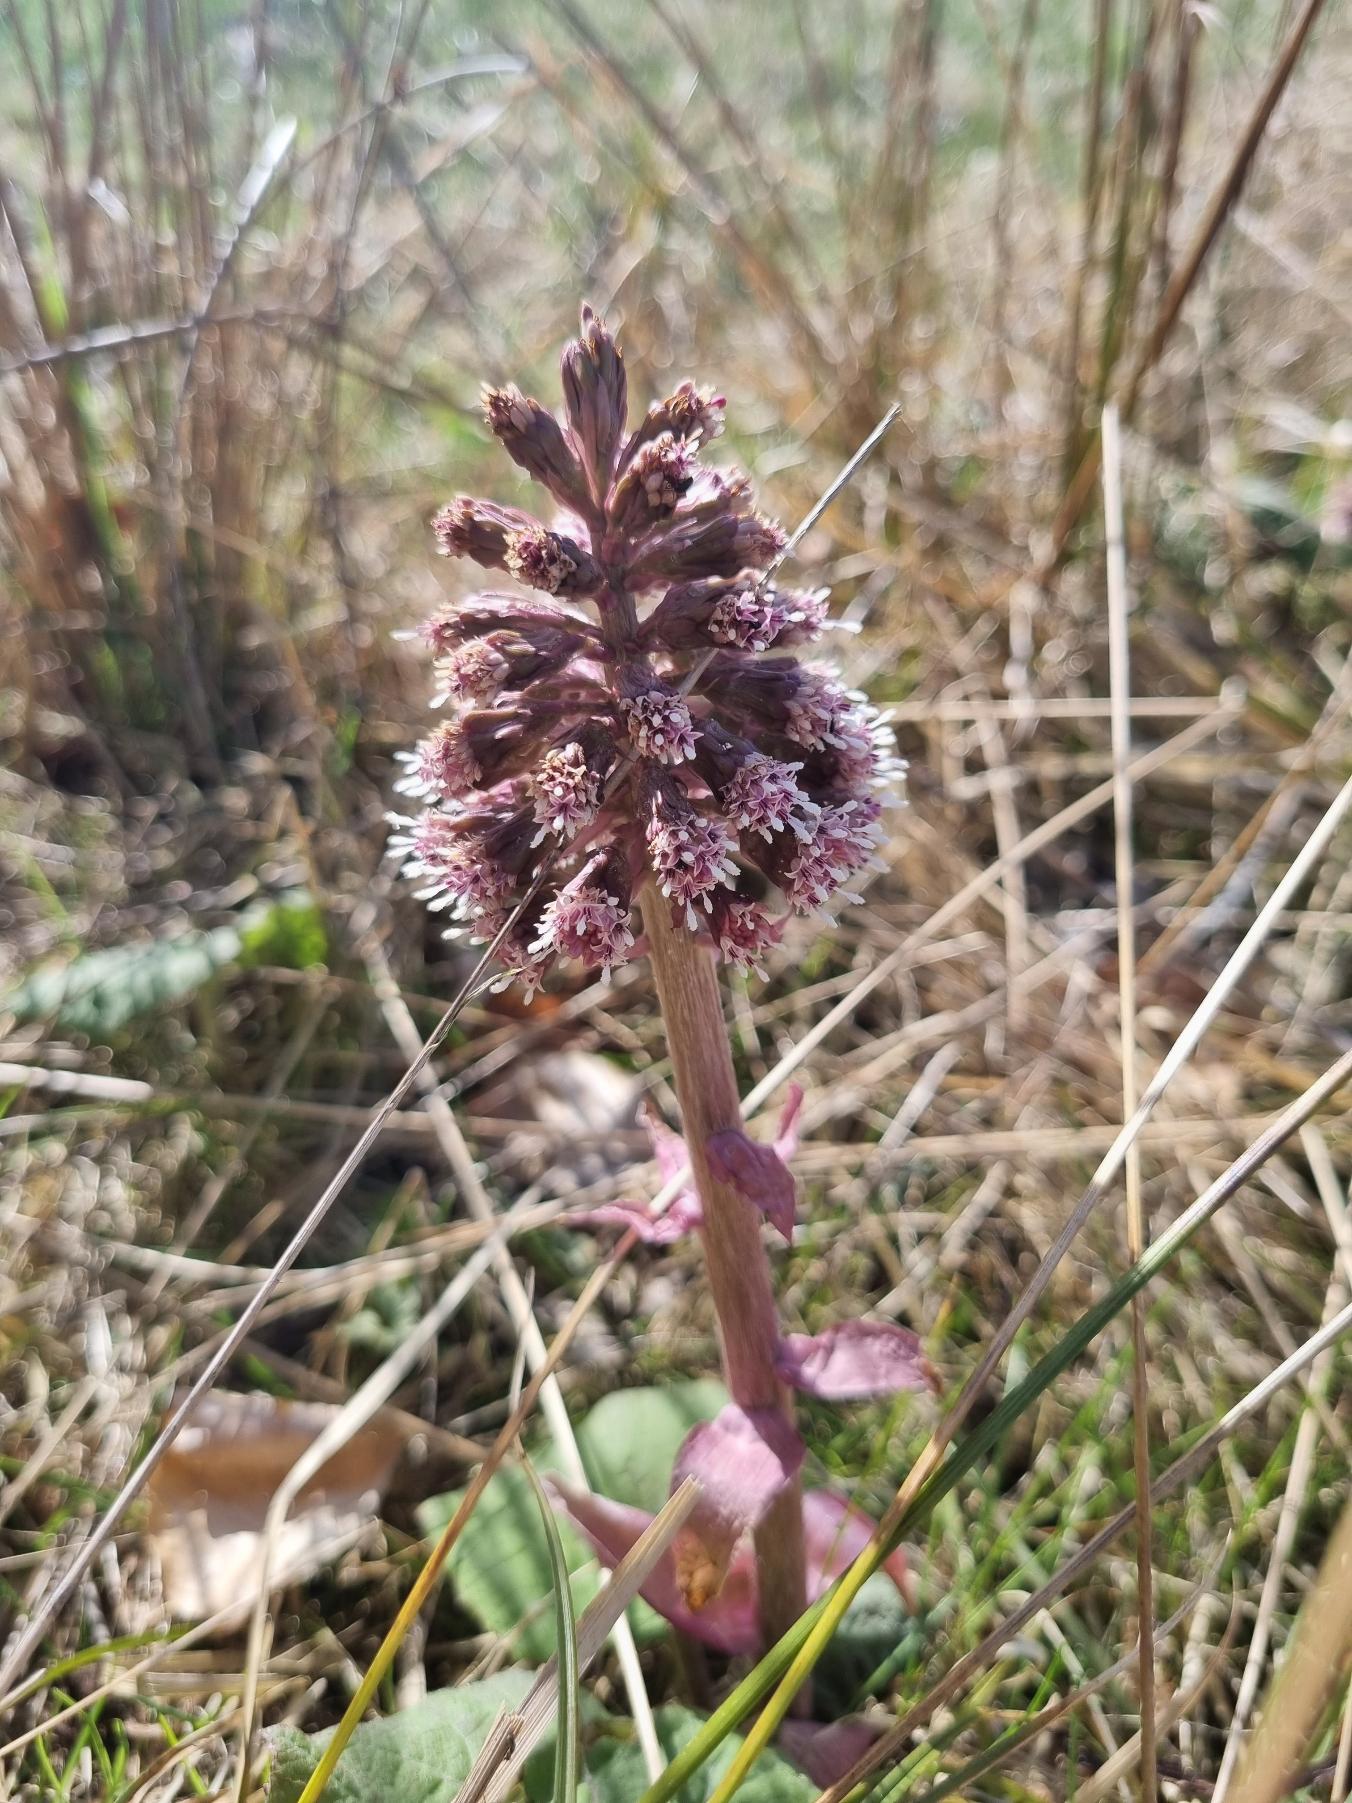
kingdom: Plantae
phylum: Tracheophyta
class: Magnoliopsida
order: Asterales
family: Asteraceae
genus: Petasites
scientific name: Petasites hybridus
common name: Rød hestehov
